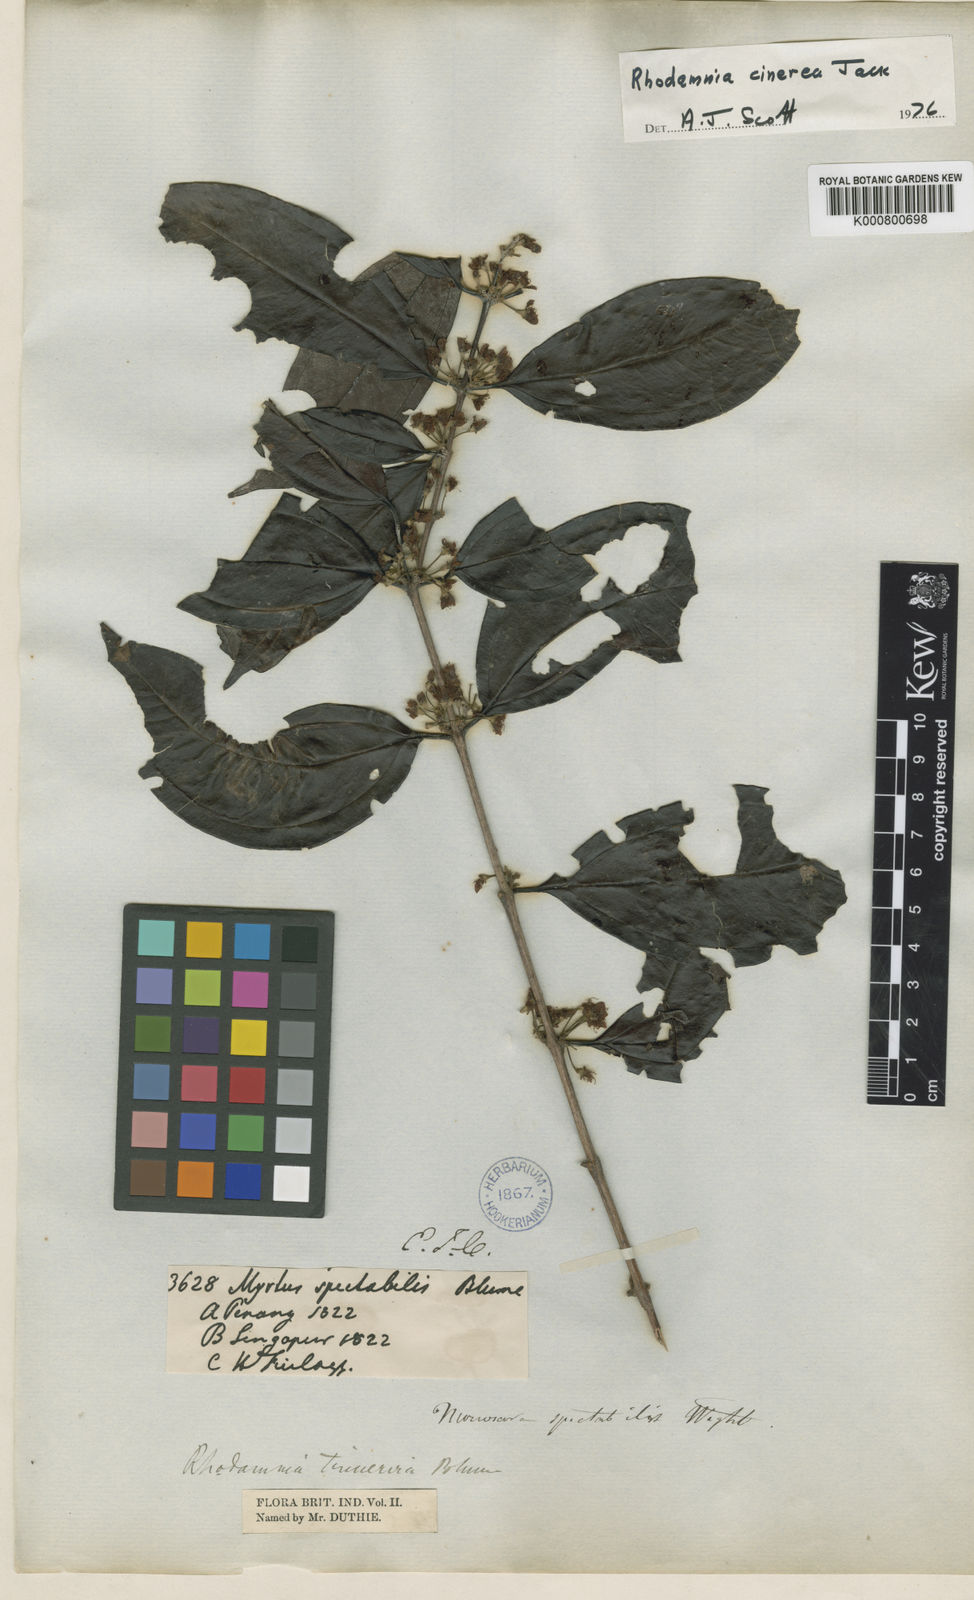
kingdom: Plantae
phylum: Tracheophyta
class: Magnoliopsida
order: Myrtales
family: Myrtaceae
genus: Rhodamnia
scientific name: Rhodamnia cinerea
